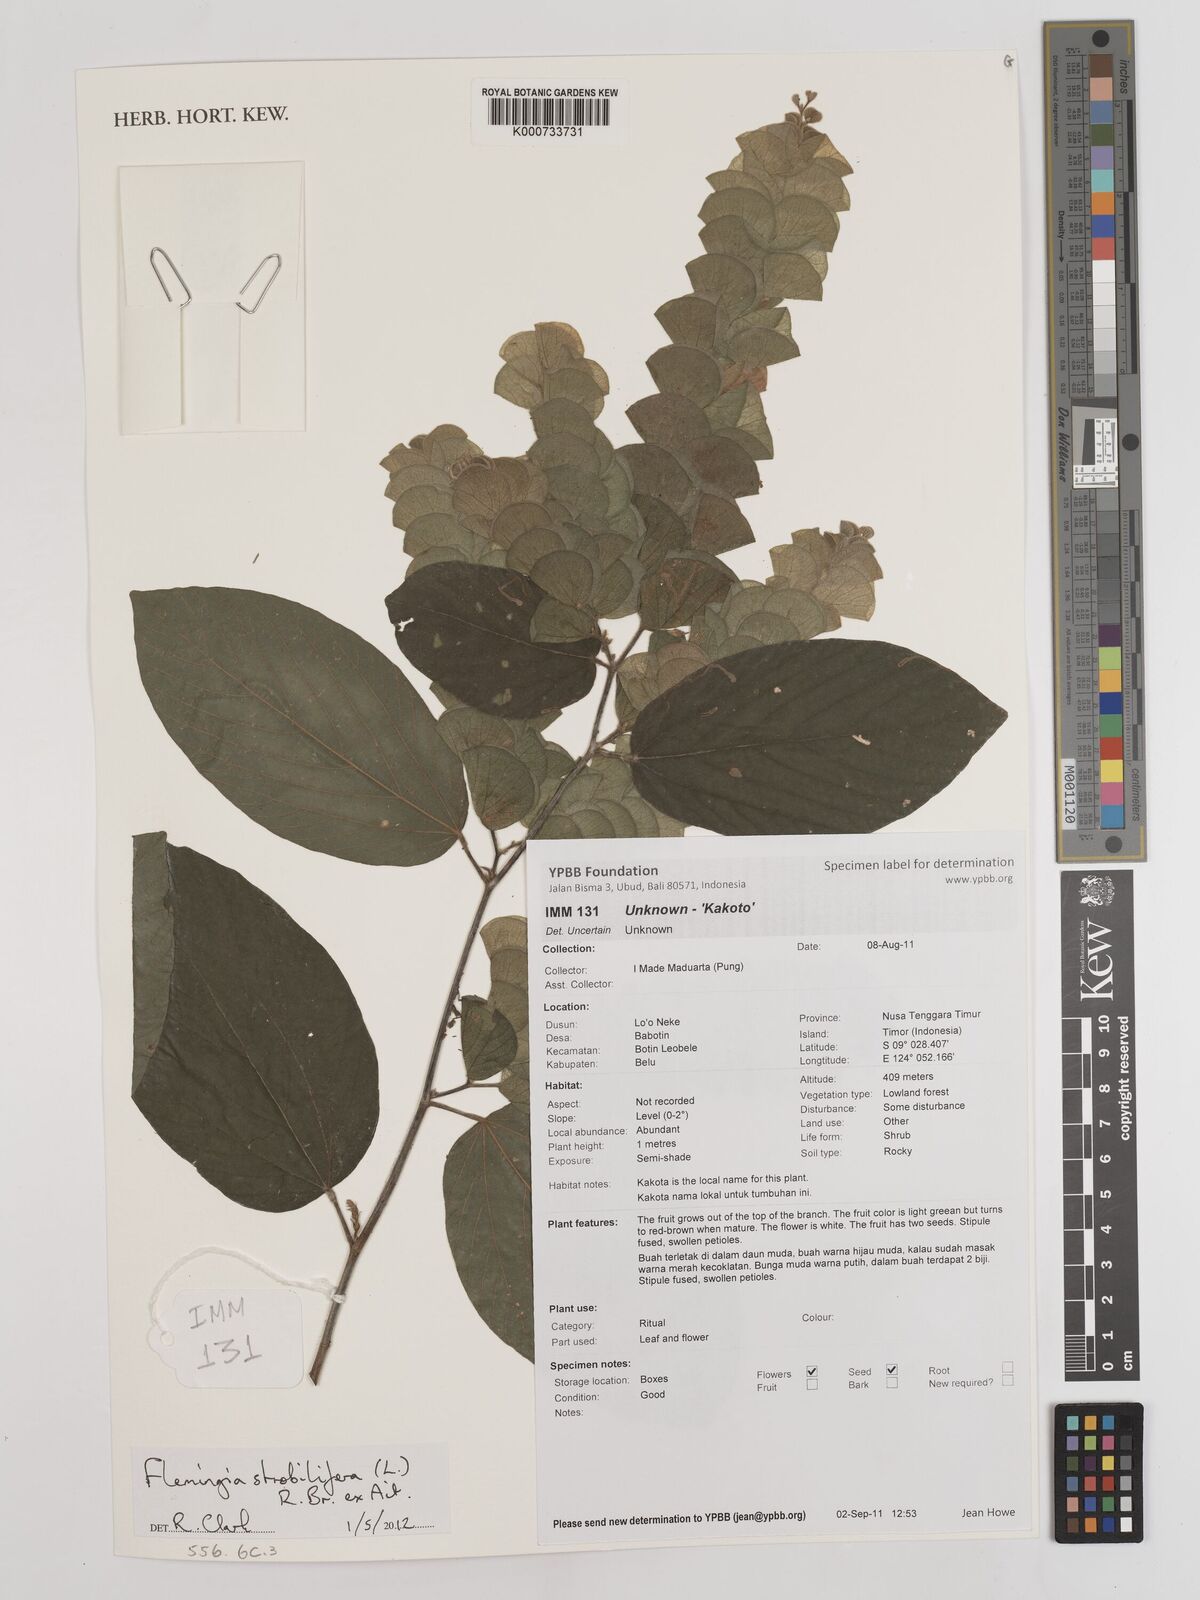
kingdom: Plantae
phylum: Tracheophyta
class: Magnoliopsida
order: Fabales
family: Fabaceae
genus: Flemingia
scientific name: Flemingia strobilifera
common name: Wild hops
